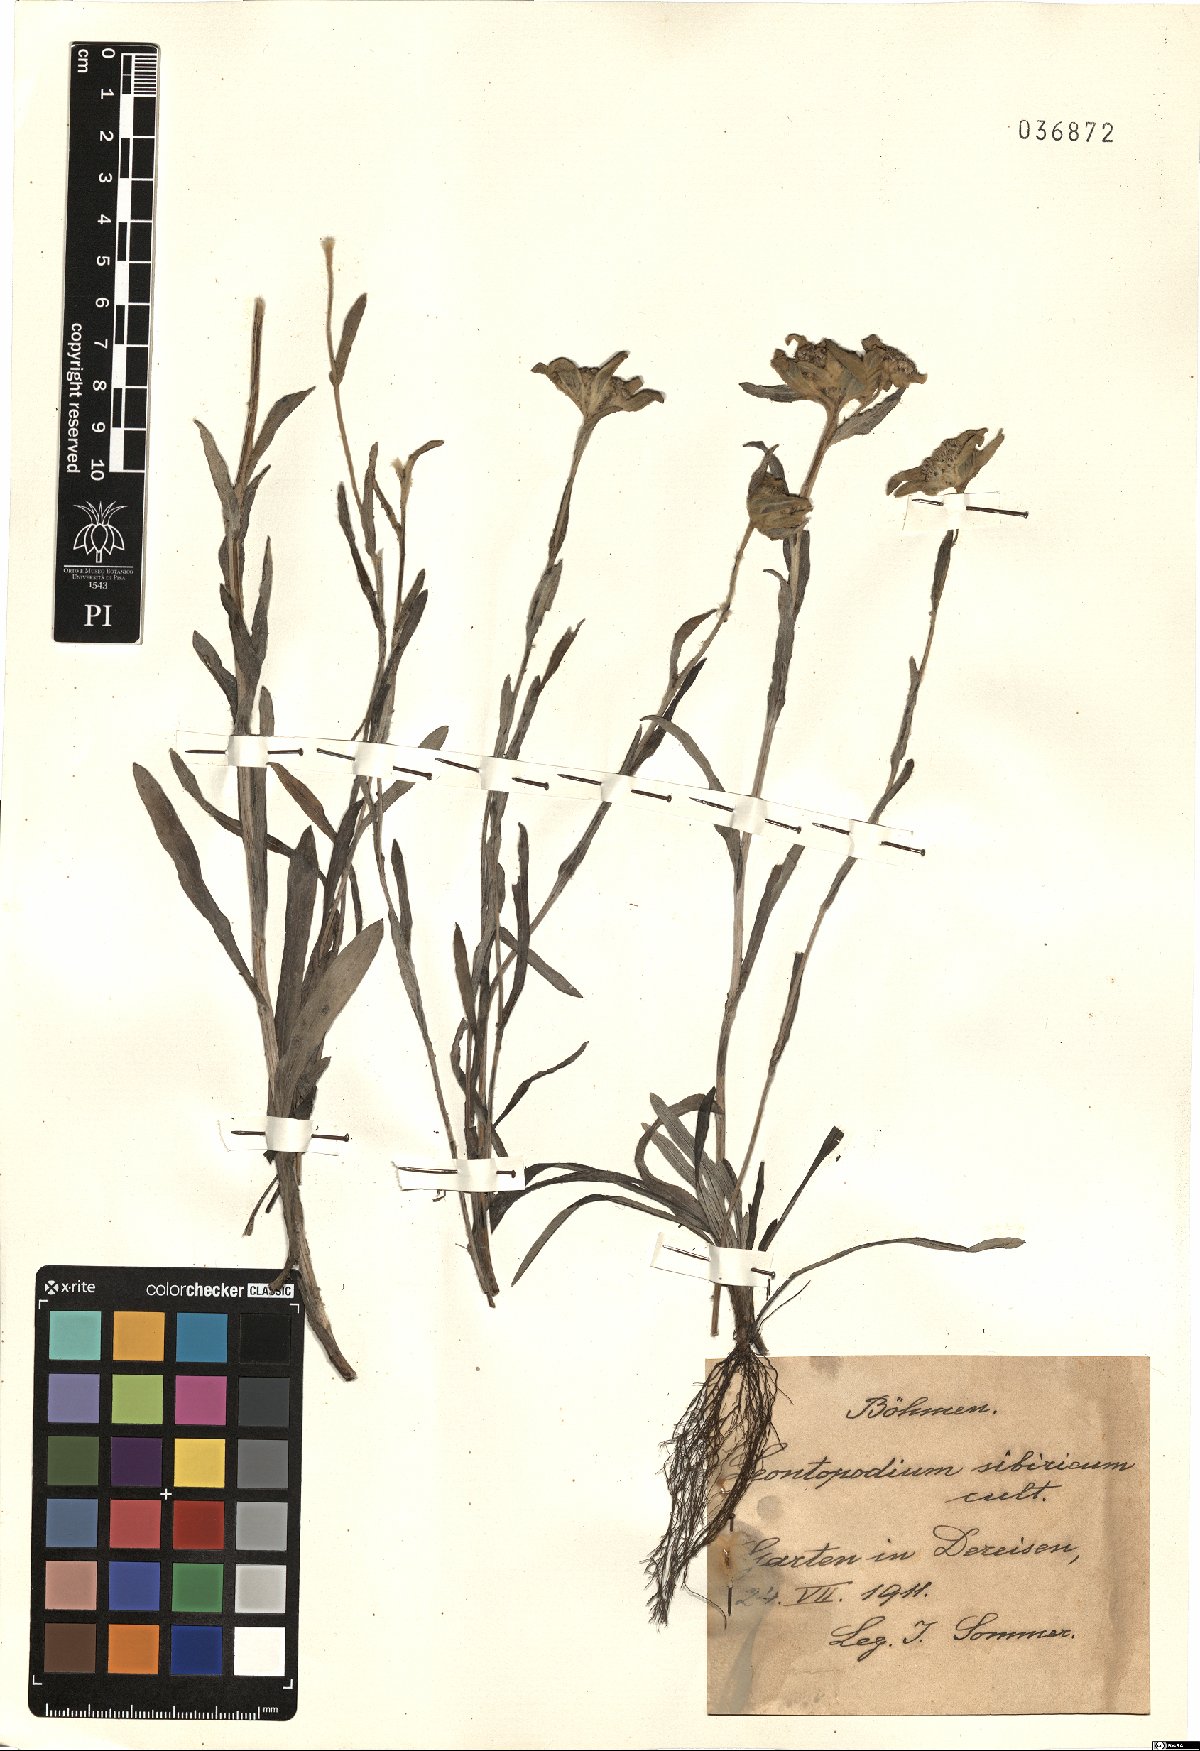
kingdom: Plantae
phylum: Tracheophyta
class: Magnoliopsida
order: Asterales
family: Asteraceae
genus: Leontopodium
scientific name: Leontopodium leontopodioides
